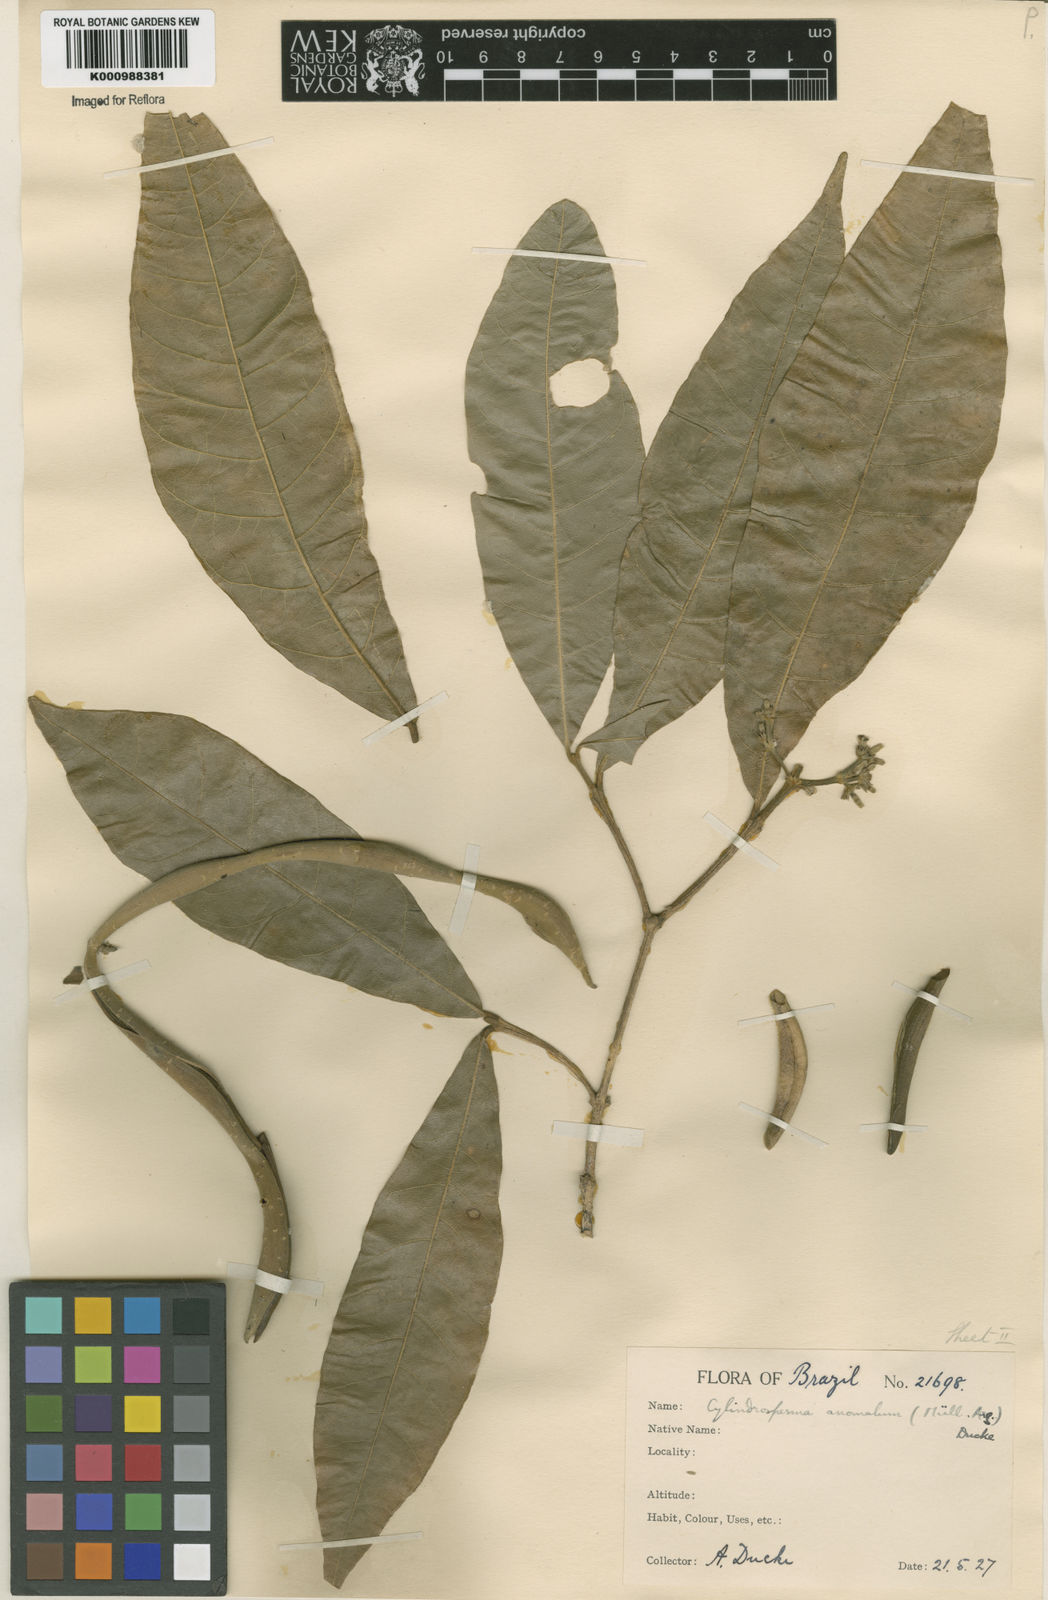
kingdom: Plantae
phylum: Tracheophyta
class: Magnoliopsida
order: Gentianales
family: Apocynaceae
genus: Microplumeria
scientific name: Microplumeria
